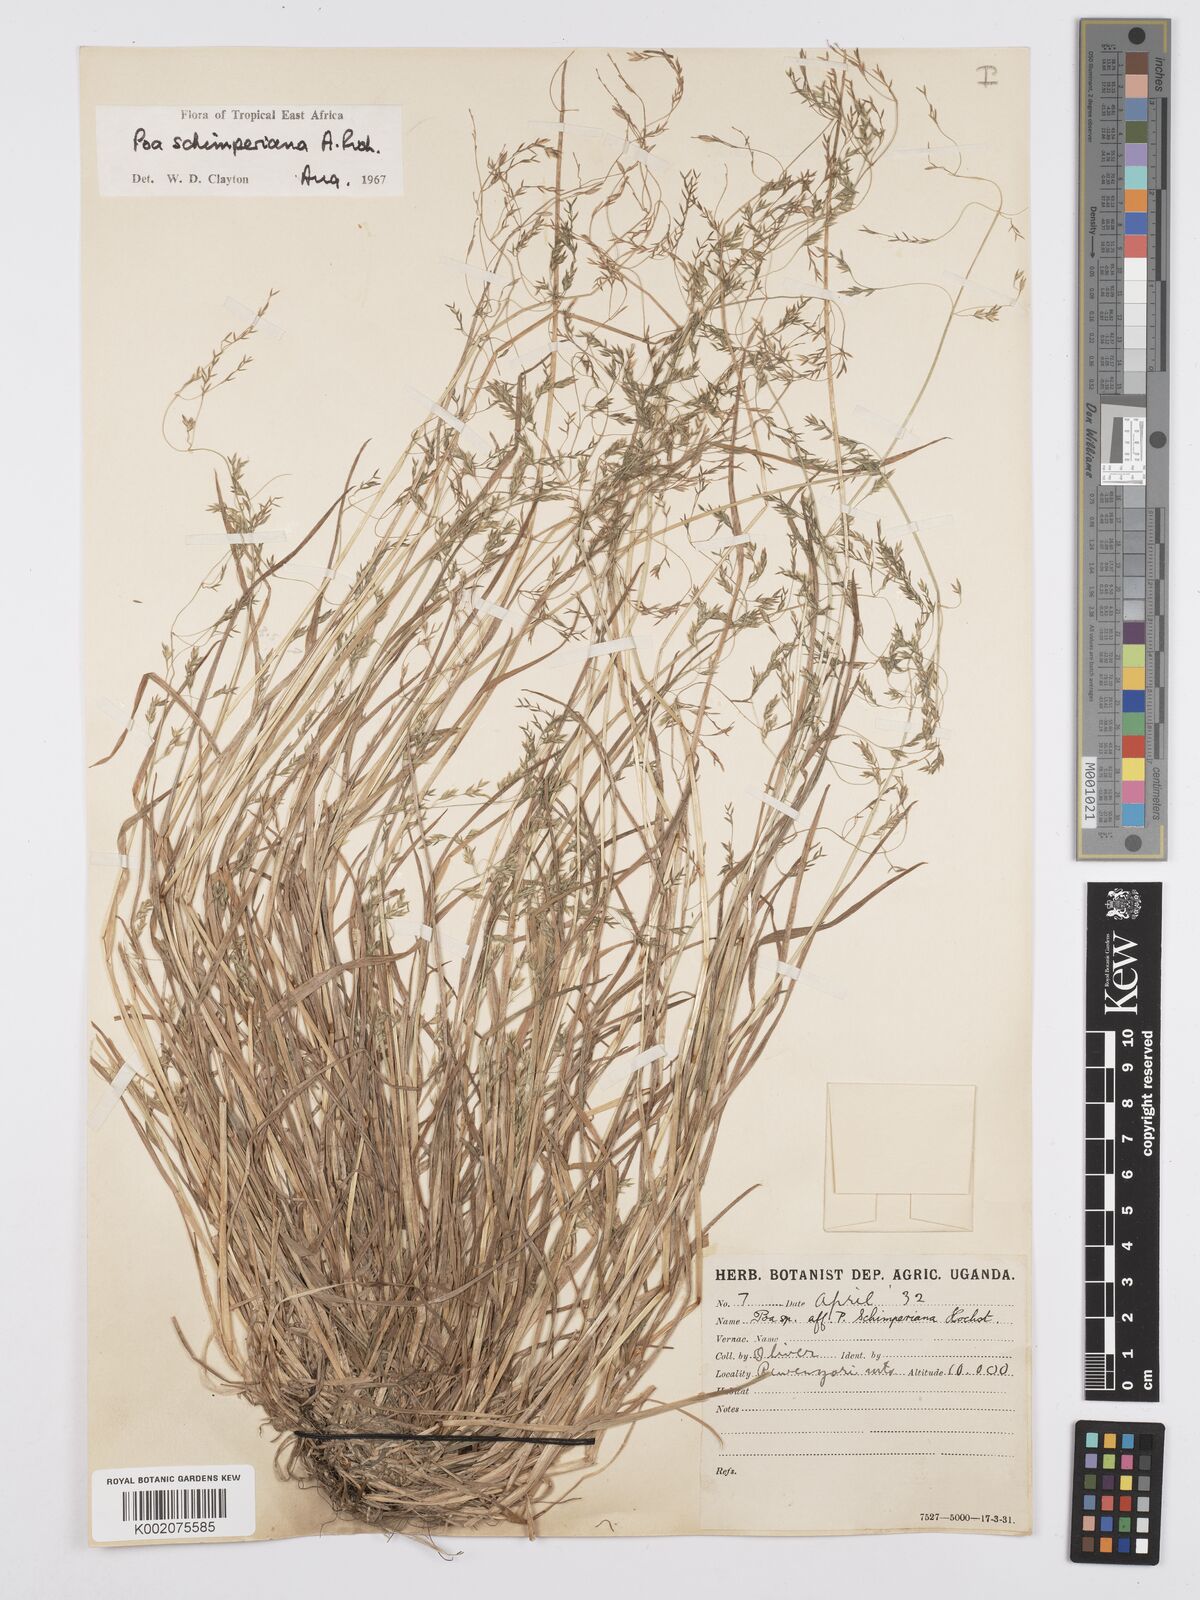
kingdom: Plantae
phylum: Tracheophyta
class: Liliopsida
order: Poales
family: Poaceae
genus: Poa
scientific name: Poa schimperiana
